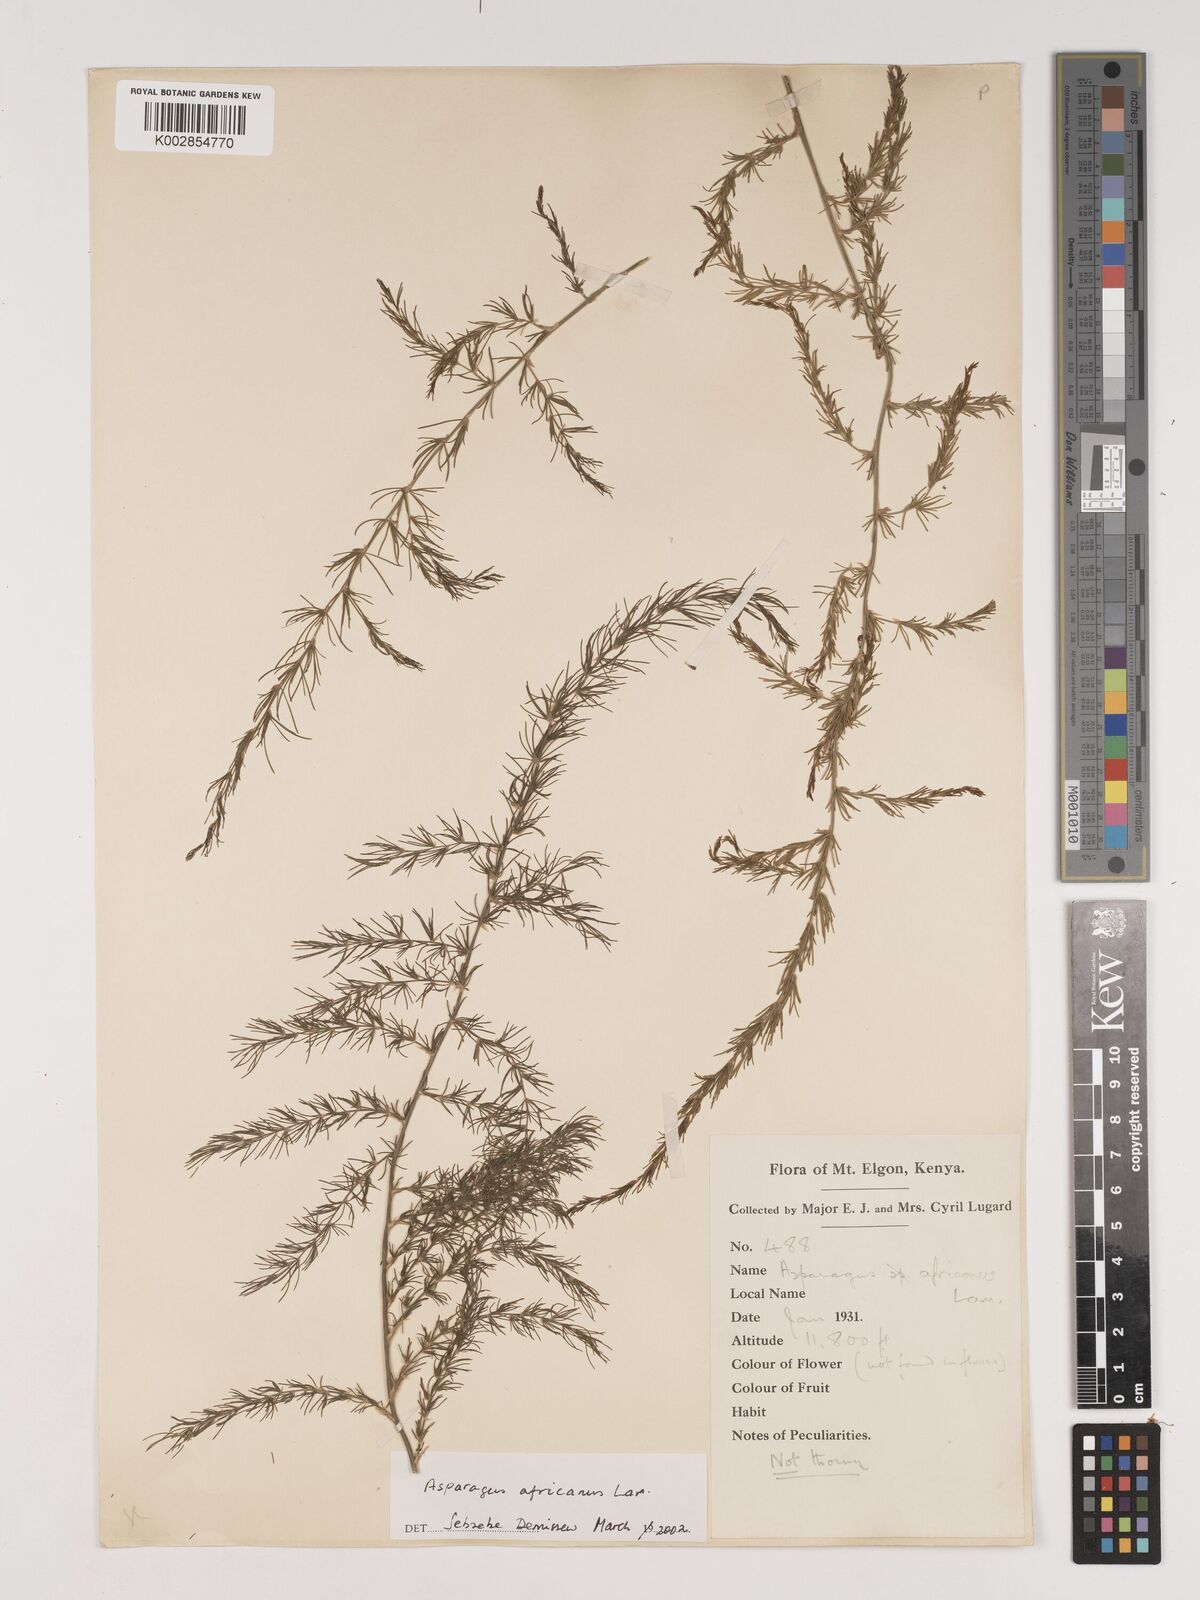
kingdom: Plantae
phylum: Tracheophyta
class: Liliopsida
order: Asparagales
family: Asparagaceae
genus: Asparagus
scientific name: Asparagus africanus
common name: Asparagus-fern
